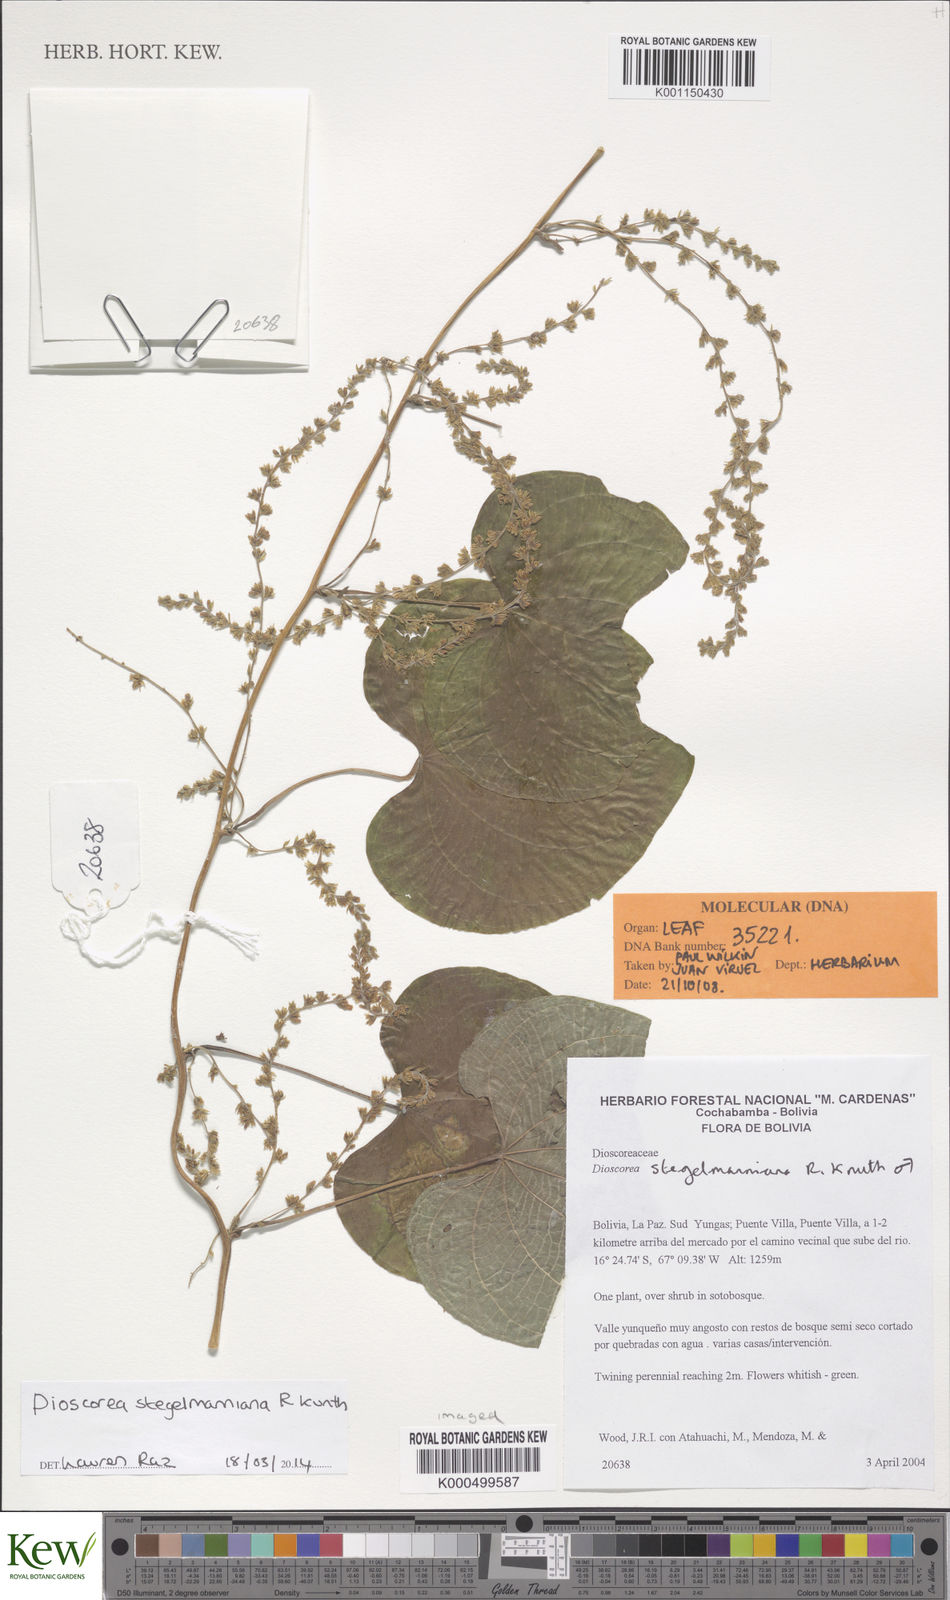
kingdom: Plantae
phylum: Tracheophyta
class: Liliopsida
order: Dioscoreales
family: Dioscoreaceae
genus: Dioscorea
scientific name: Dioscorea stegelmanniana
